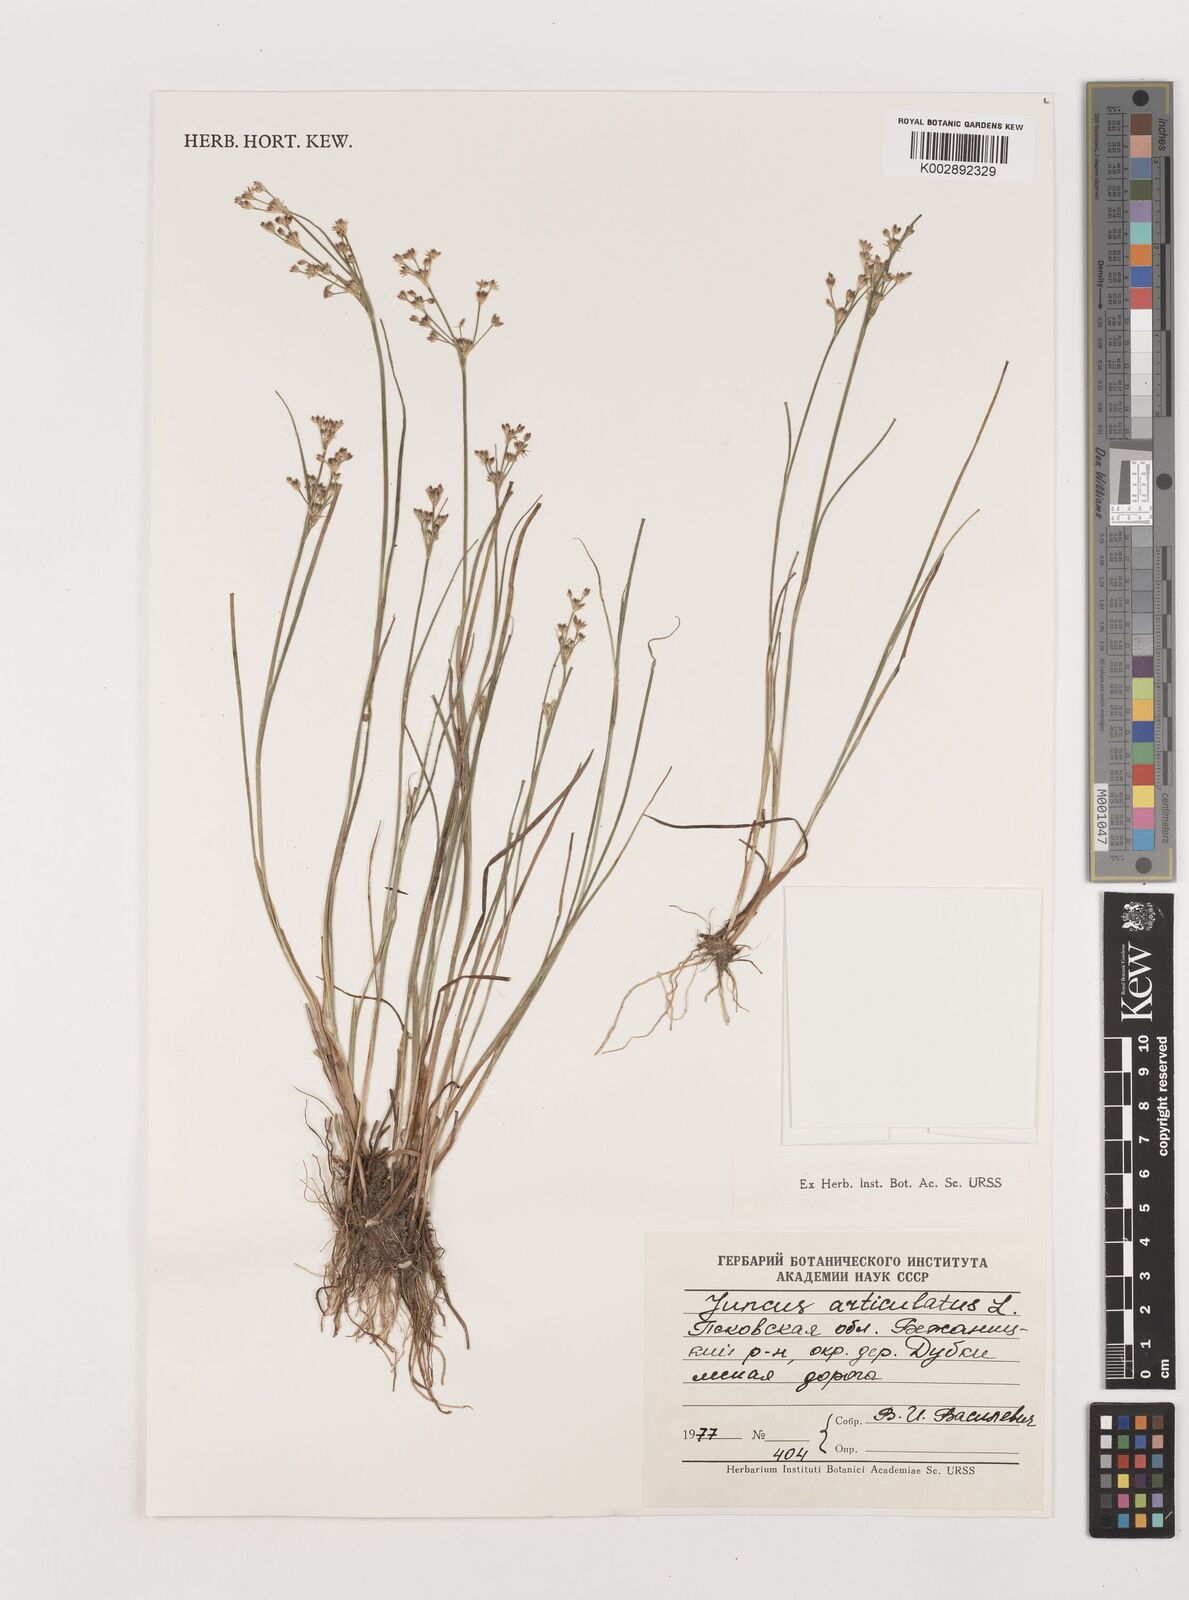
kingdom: Plantae
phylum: Tracheophyta
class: Liliopsida
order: Poales
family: Juncaceae
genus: Juncus
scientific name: Juncus articulatus
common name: Jointed rush
